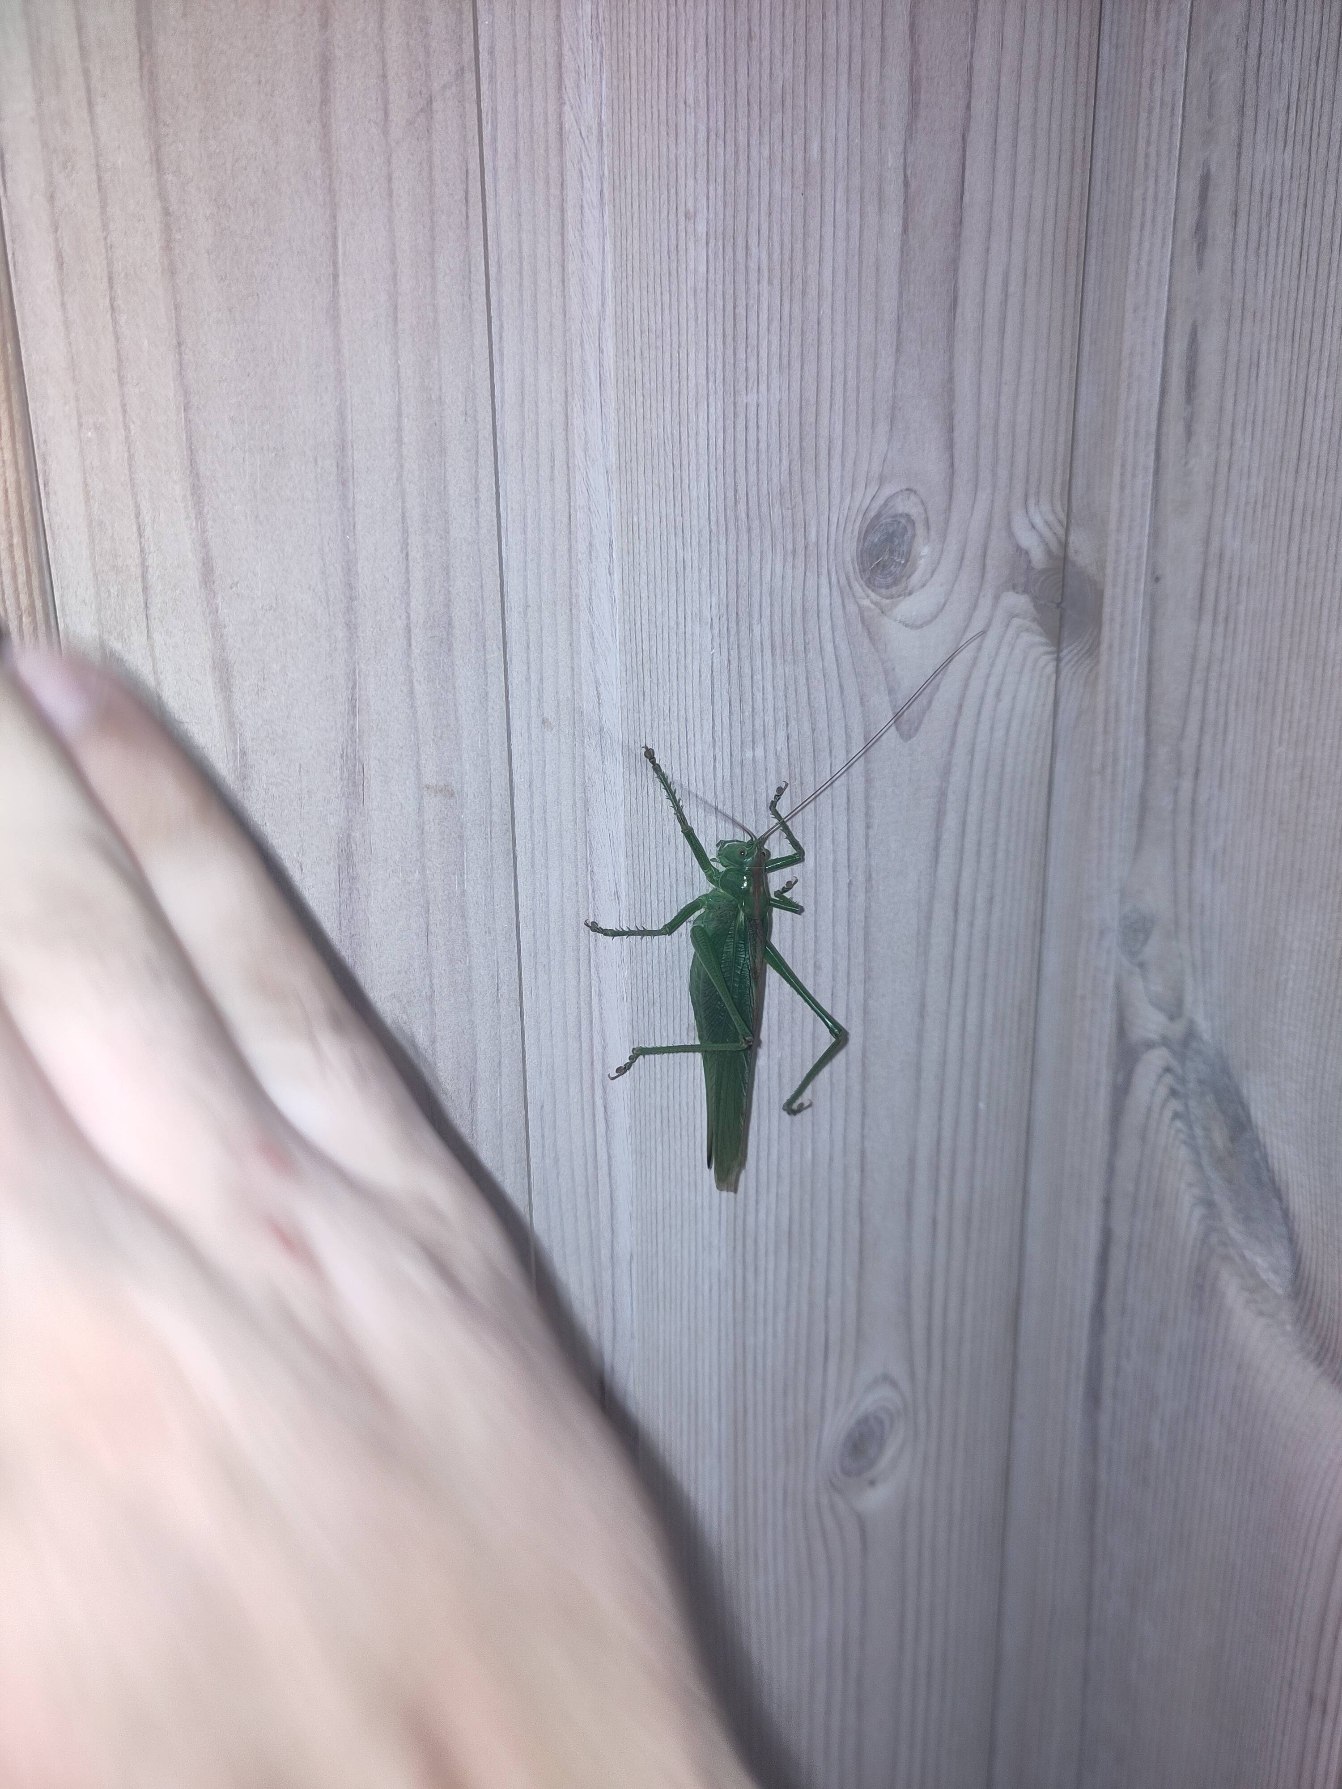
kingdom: Animalia
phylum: Arthropoda
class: Insecta
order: Orthoptera
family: Tettigoniidae
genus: Tettigonia
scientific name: Tettigonia viridissima
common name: Stor grøn løvgræshoppe
